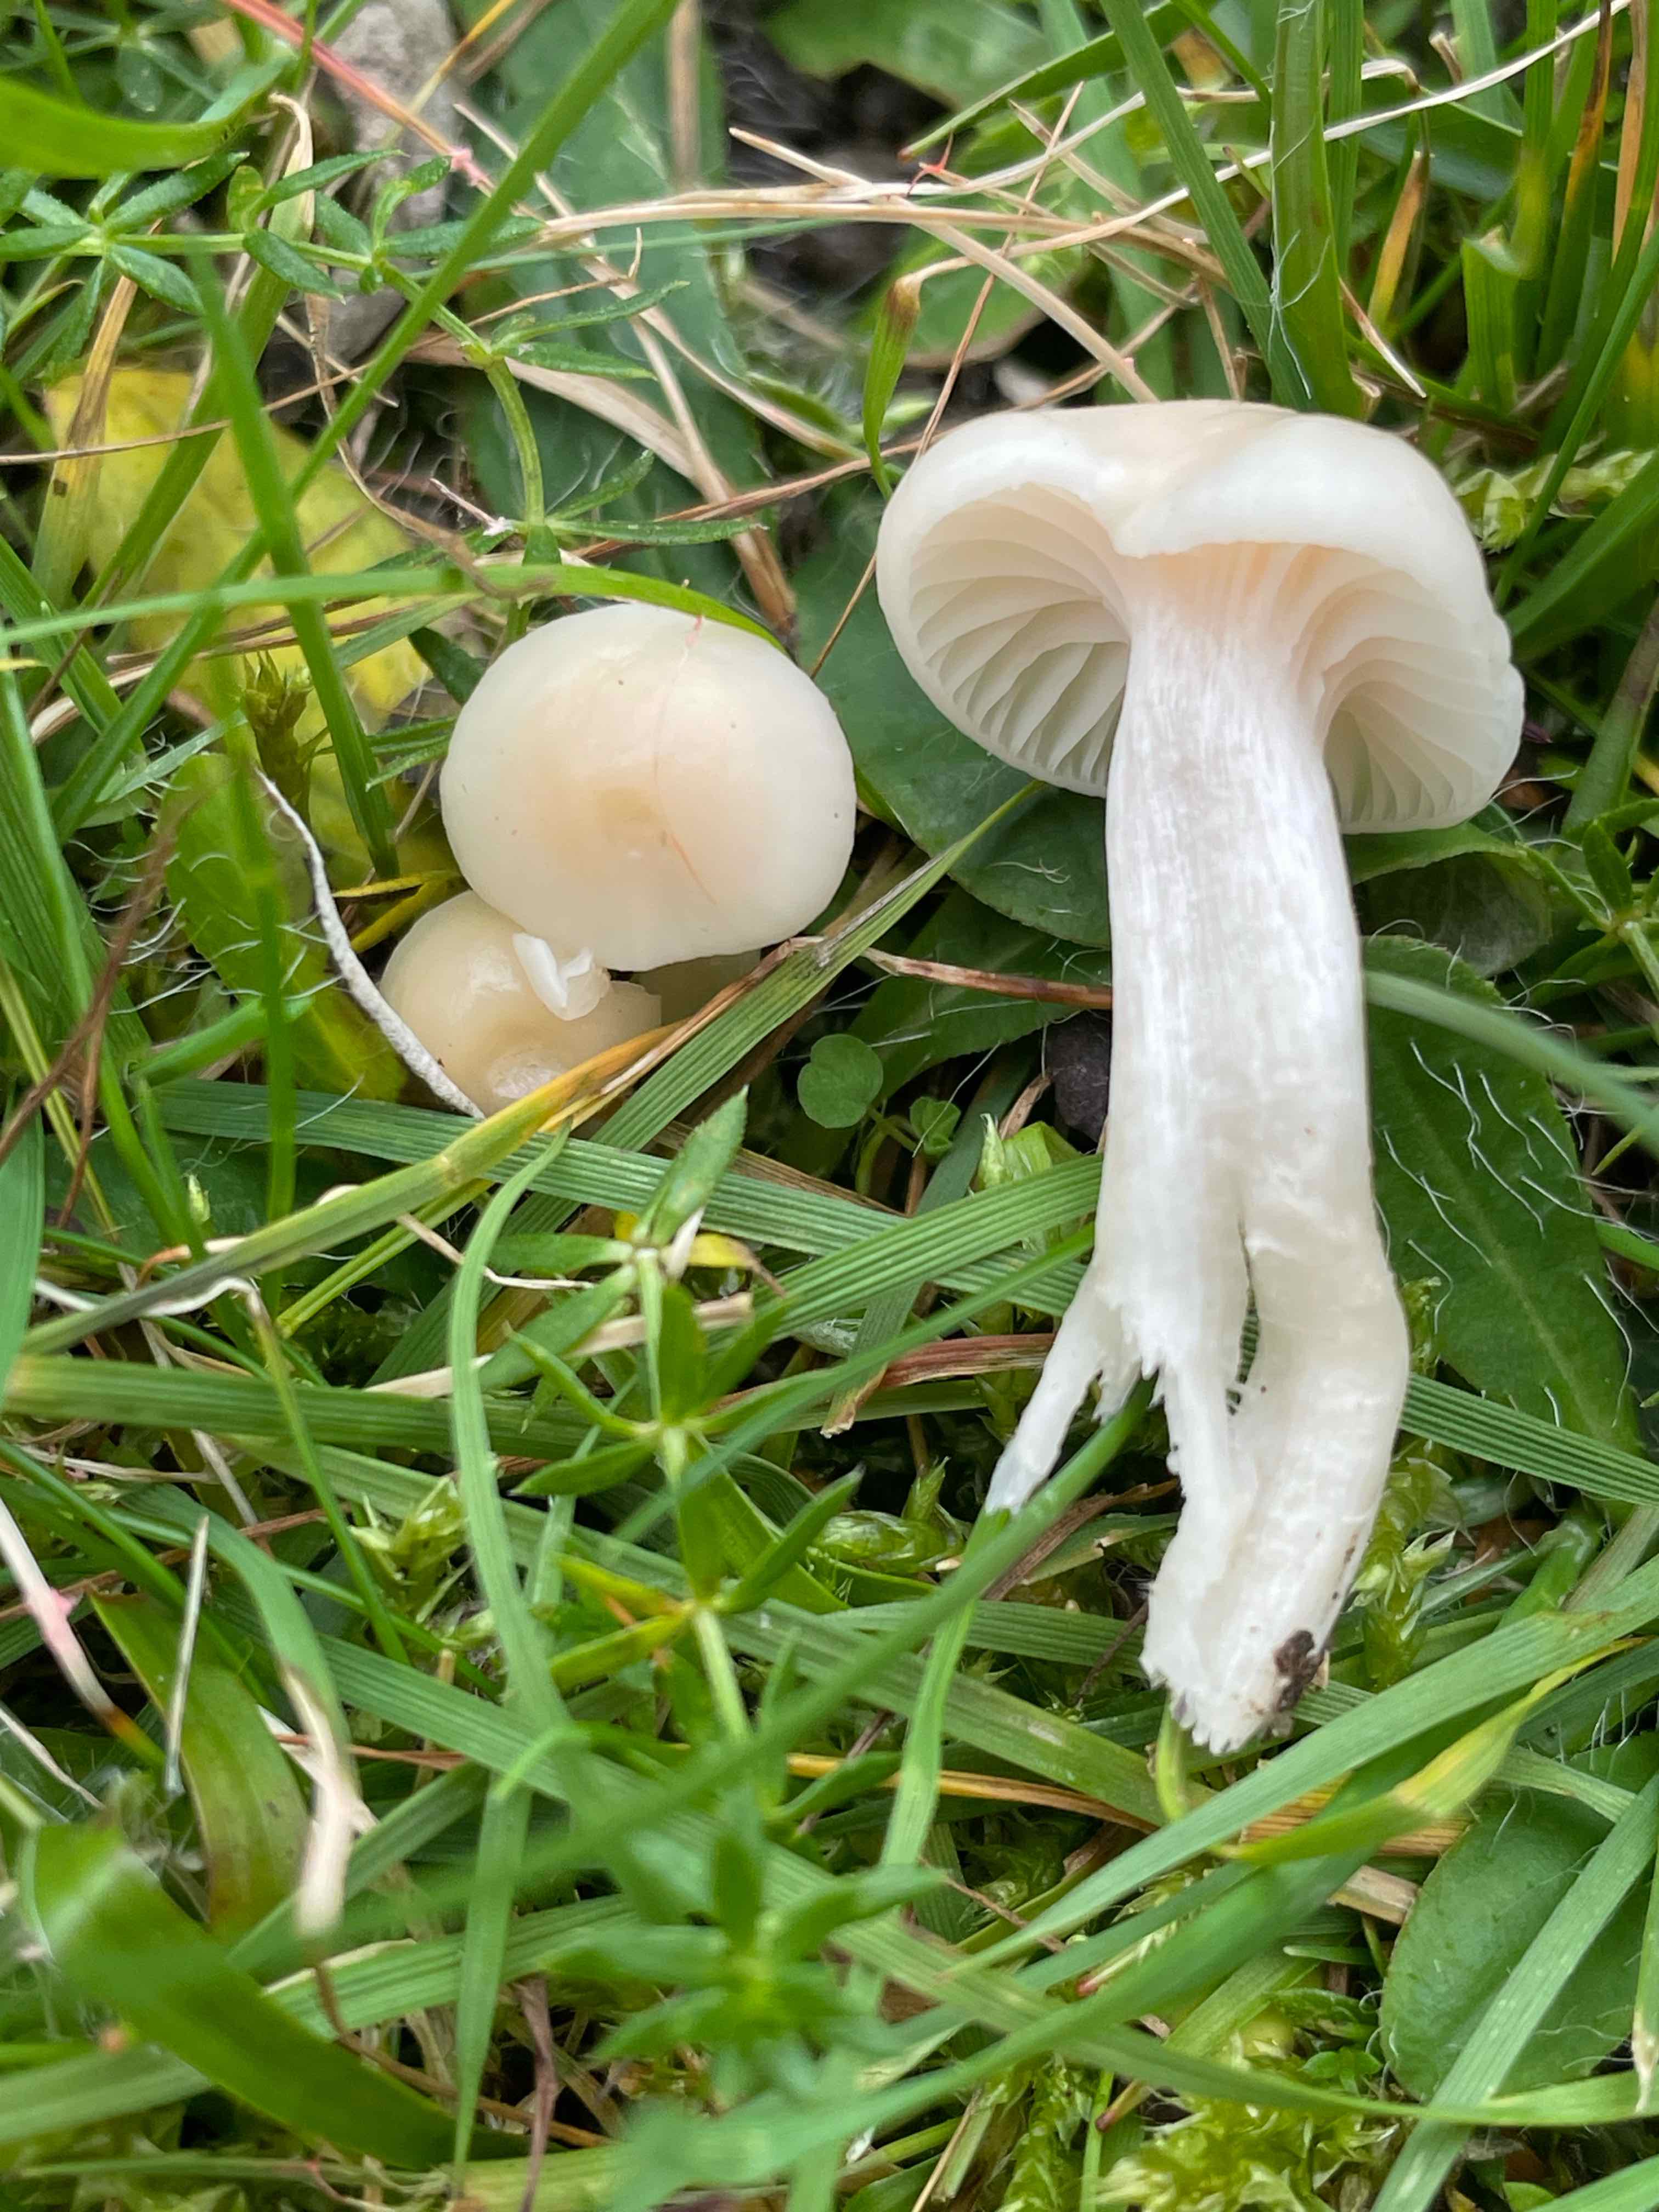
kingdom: Fungi
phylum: Basidiomycota
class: Agaricomycetes
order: Agaricales
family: Hygrophoraceae
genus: Cuphophyllus
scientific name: Cuphophyllus virgineus
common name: snehvid vokshat
